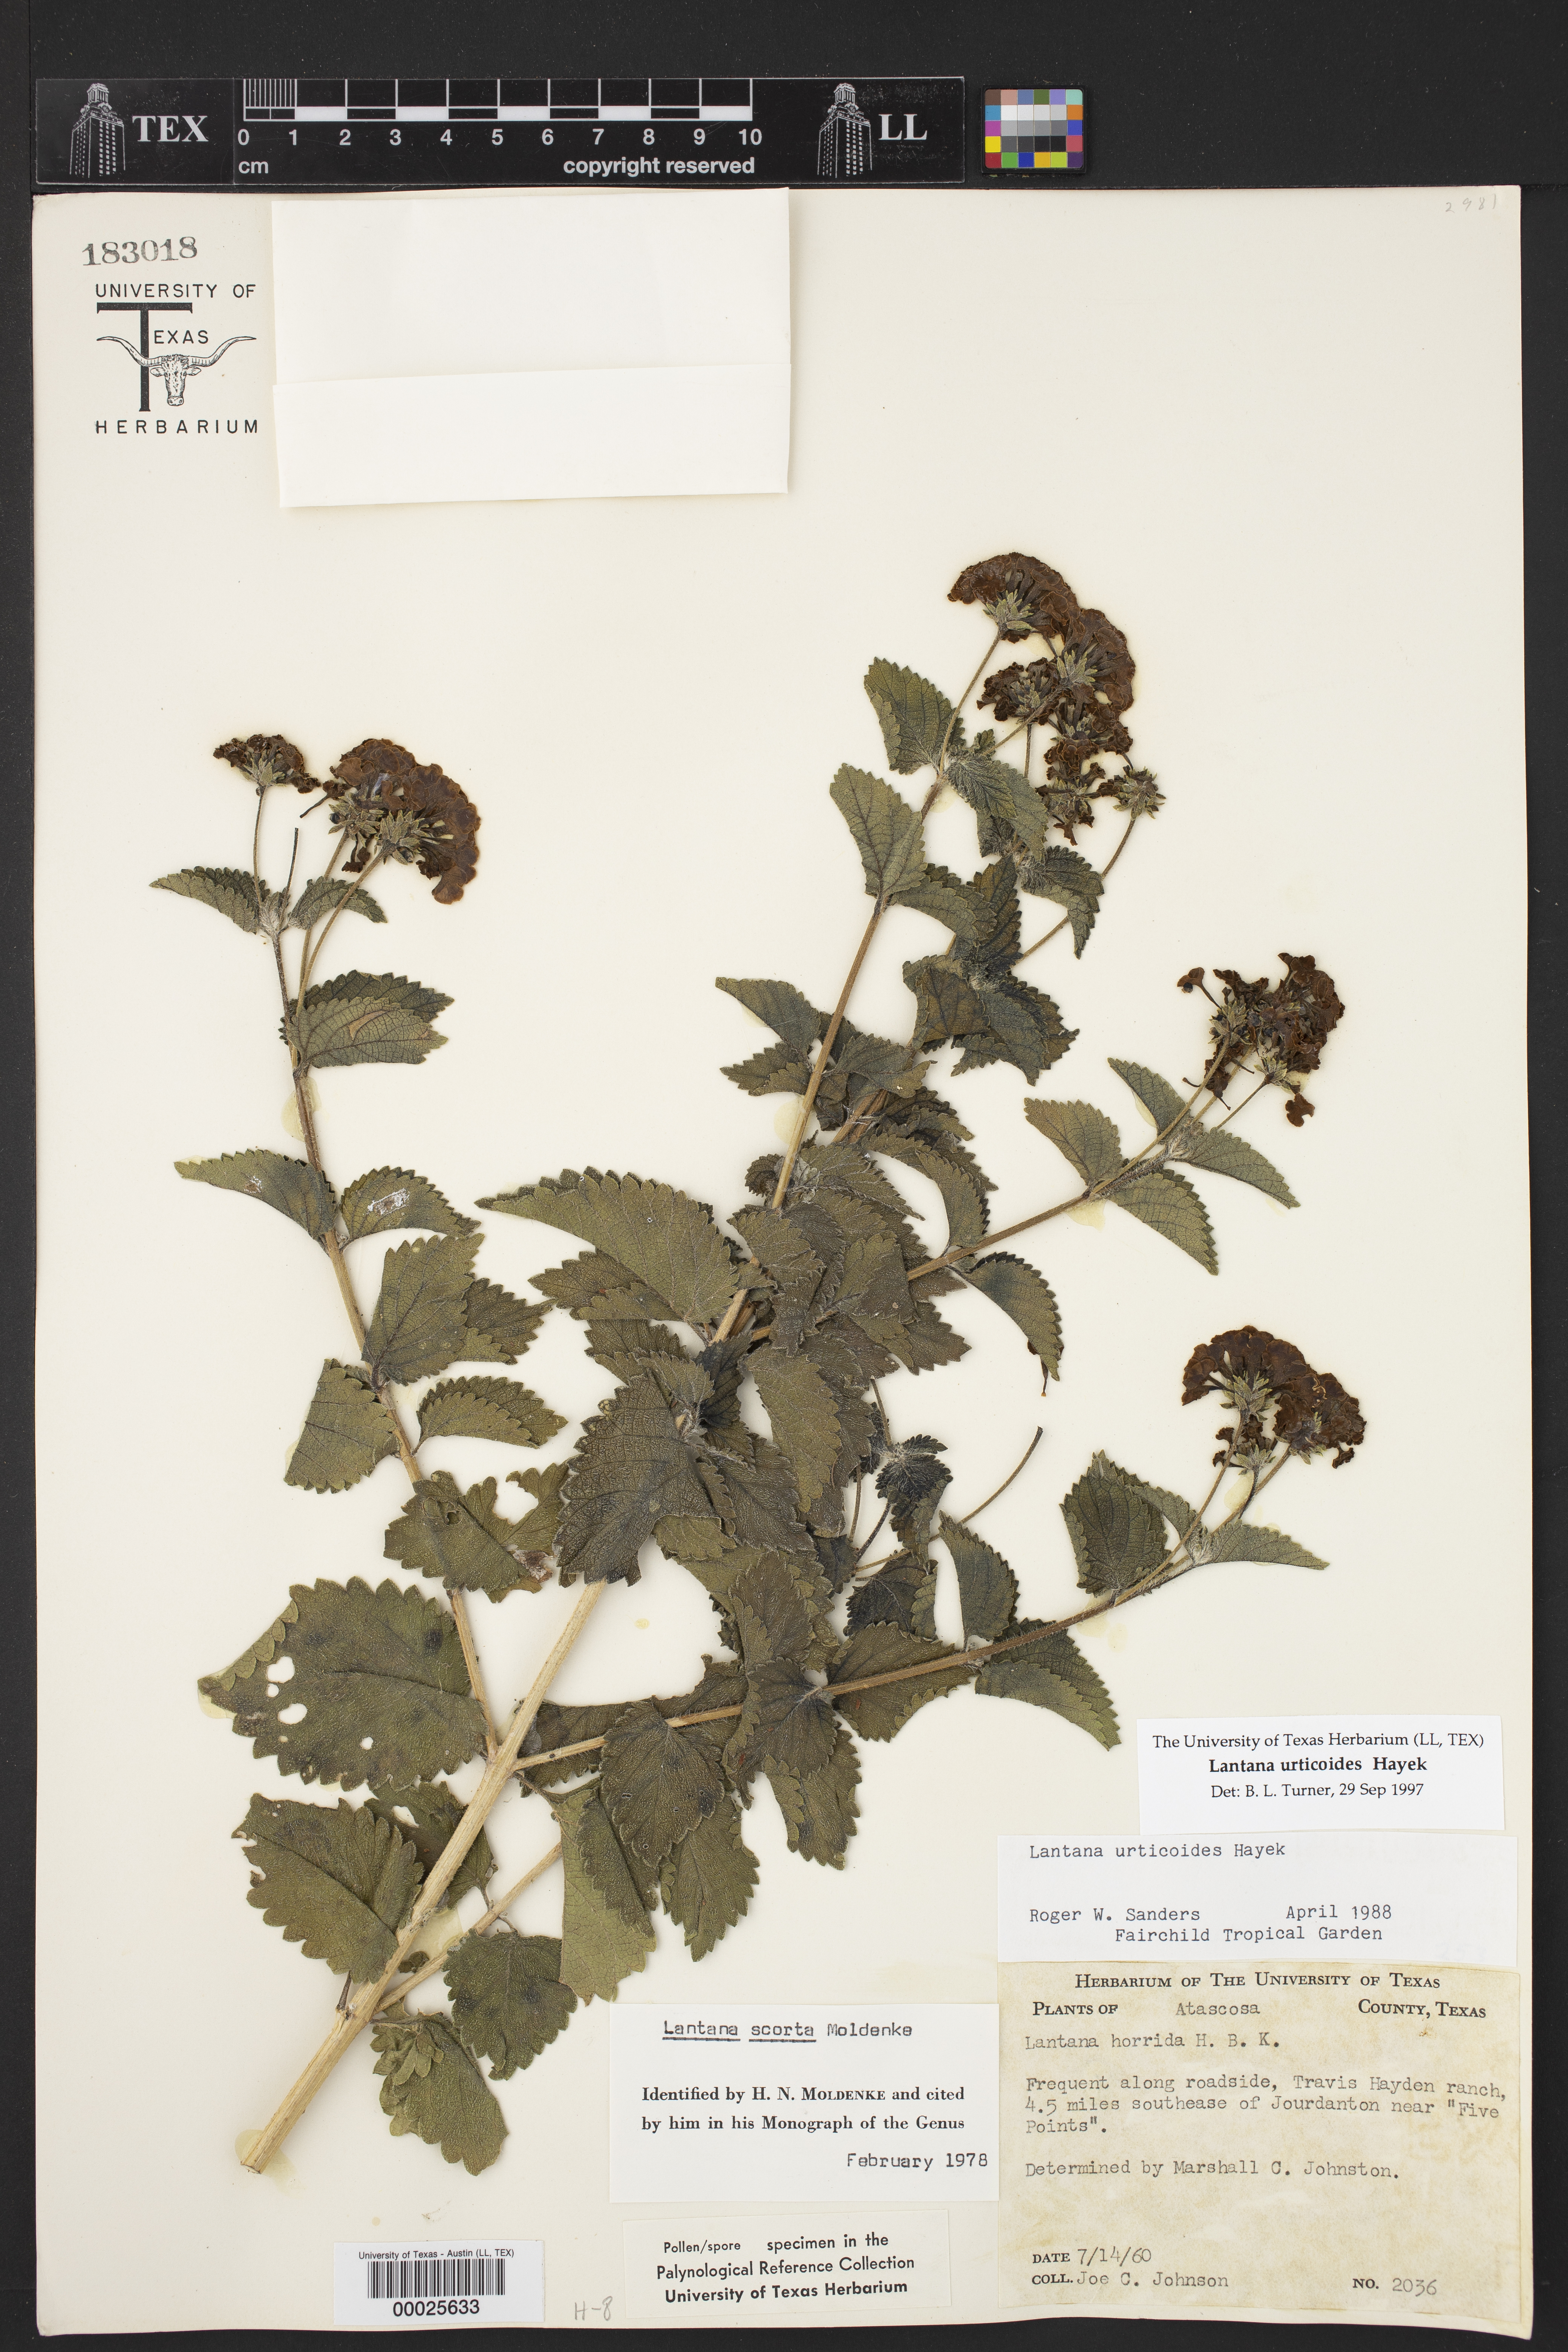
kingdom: Plantae
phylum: Tracheophyta
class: Magnoliopsida
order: Lamiales
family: Verbenaceae
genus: Lantana
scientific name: Lantana urticoides
